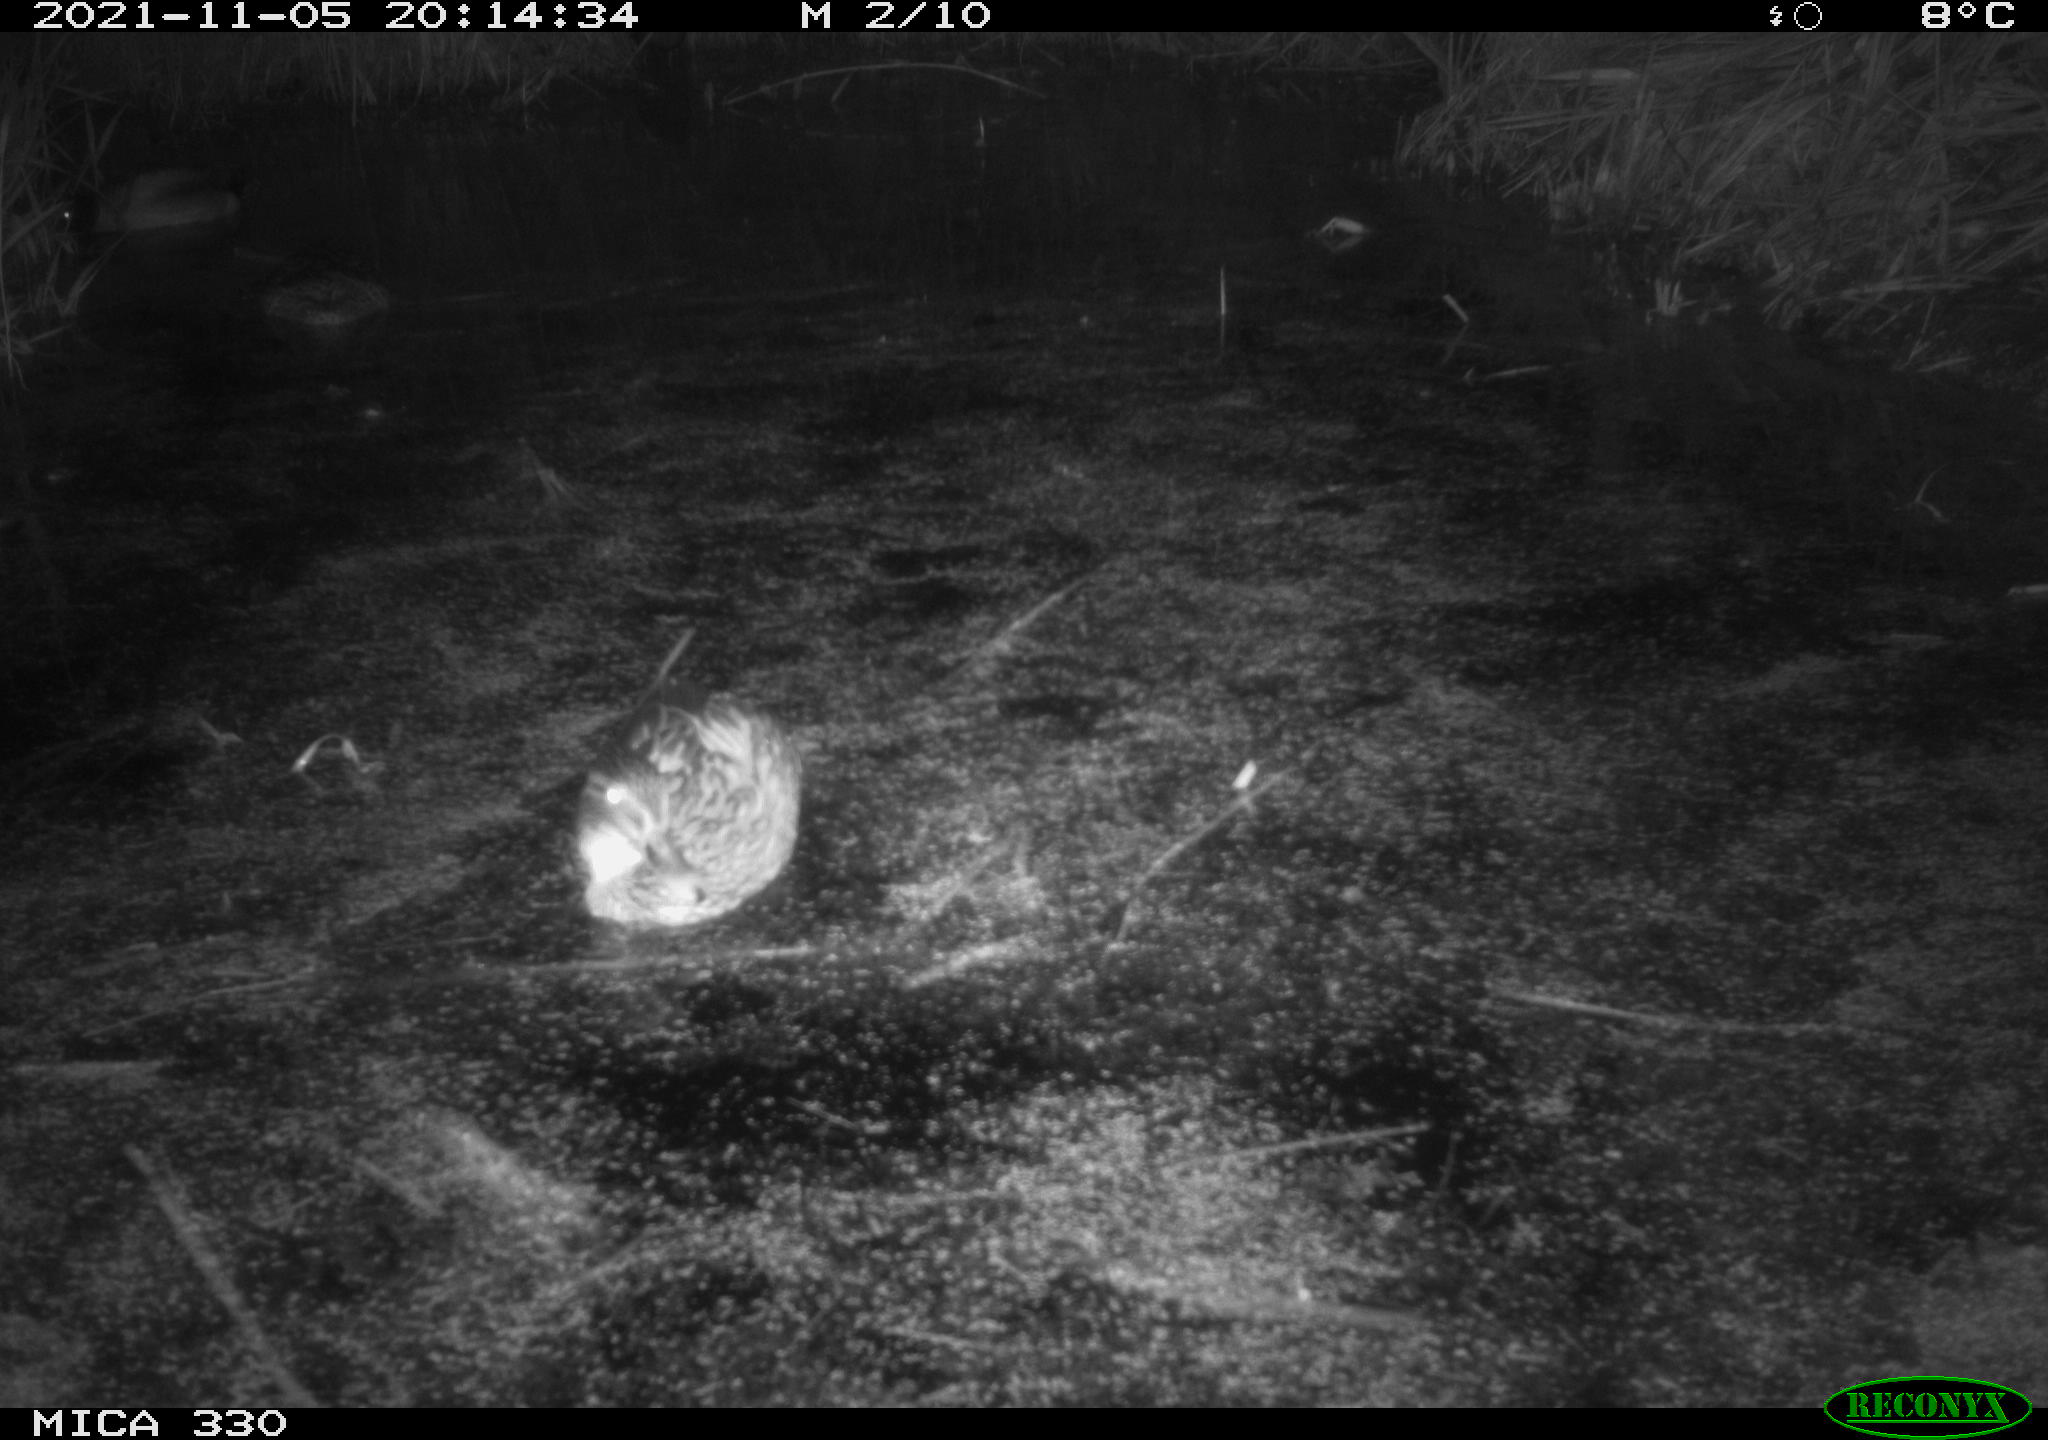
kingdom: Animalia
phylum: Chordata
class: Aves
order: Anseriformes
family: Anatidae
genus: Anas
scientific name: Anas platyrhynchos
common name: Mallard
